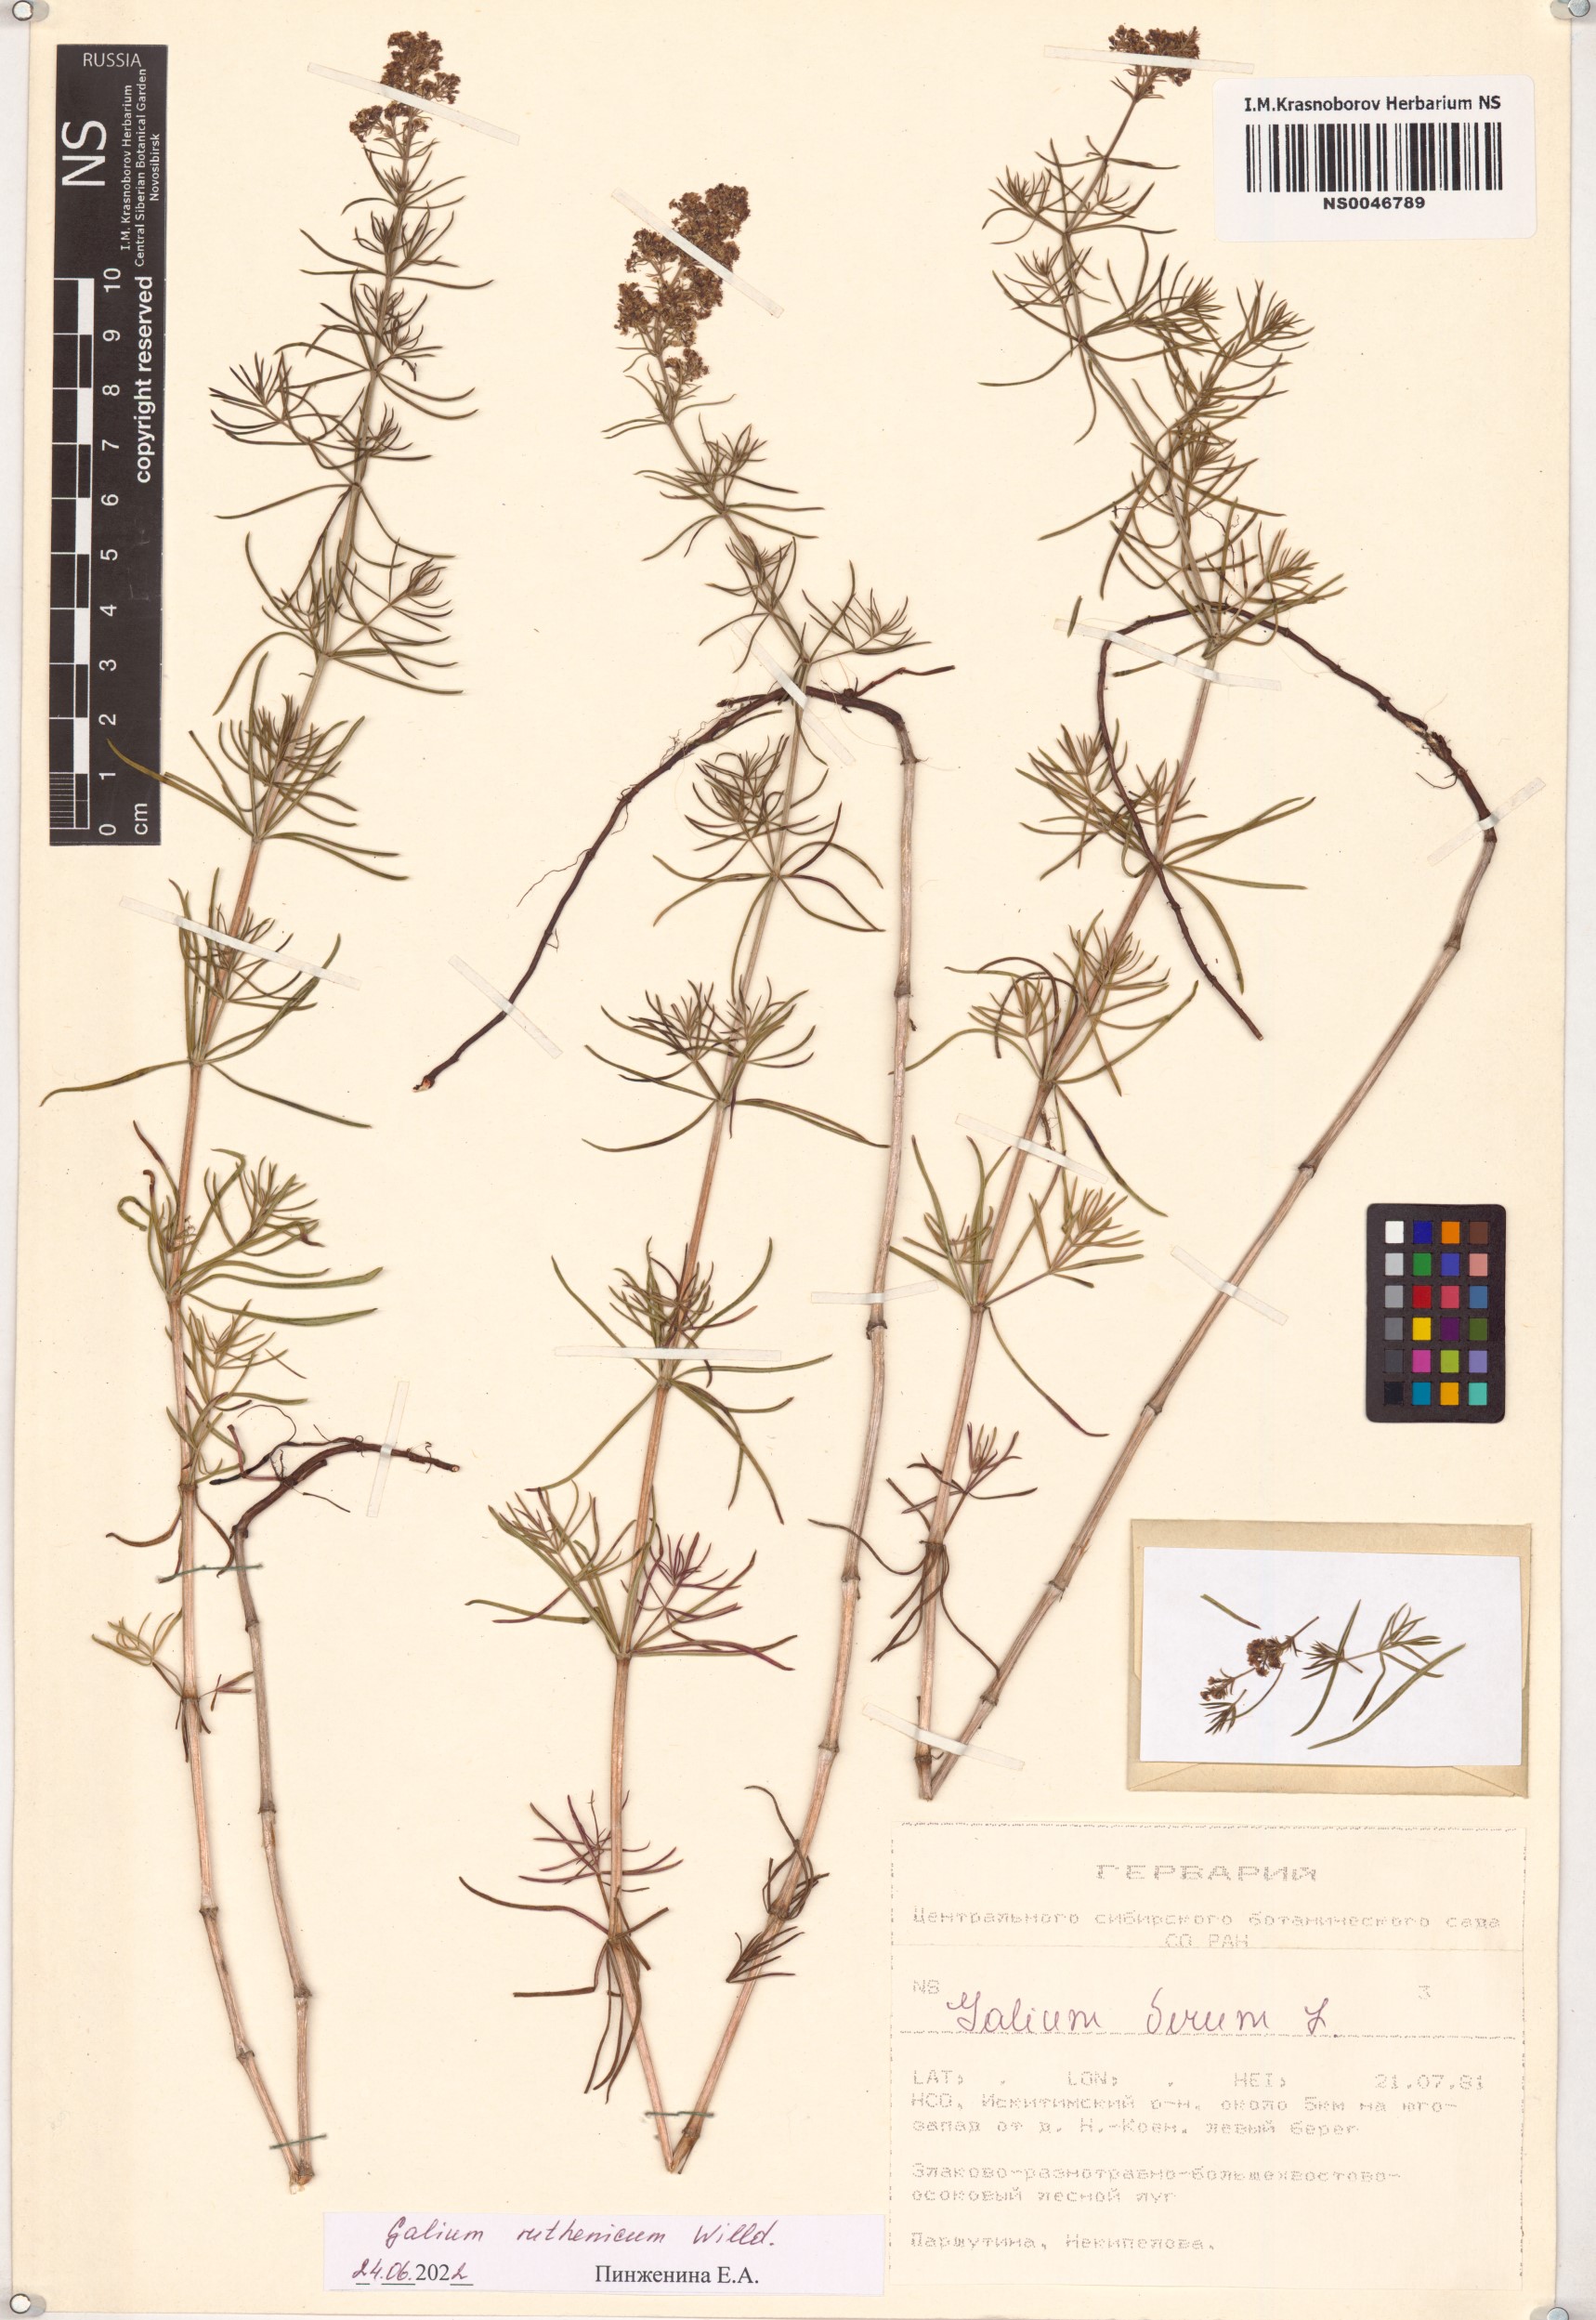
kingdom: Plantae
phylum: Tracheophyta
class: Magnoliopsida
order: Gentianales
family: Rubiaceae
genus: Galium
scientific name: Galium verum
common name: Lady's bedstraw
